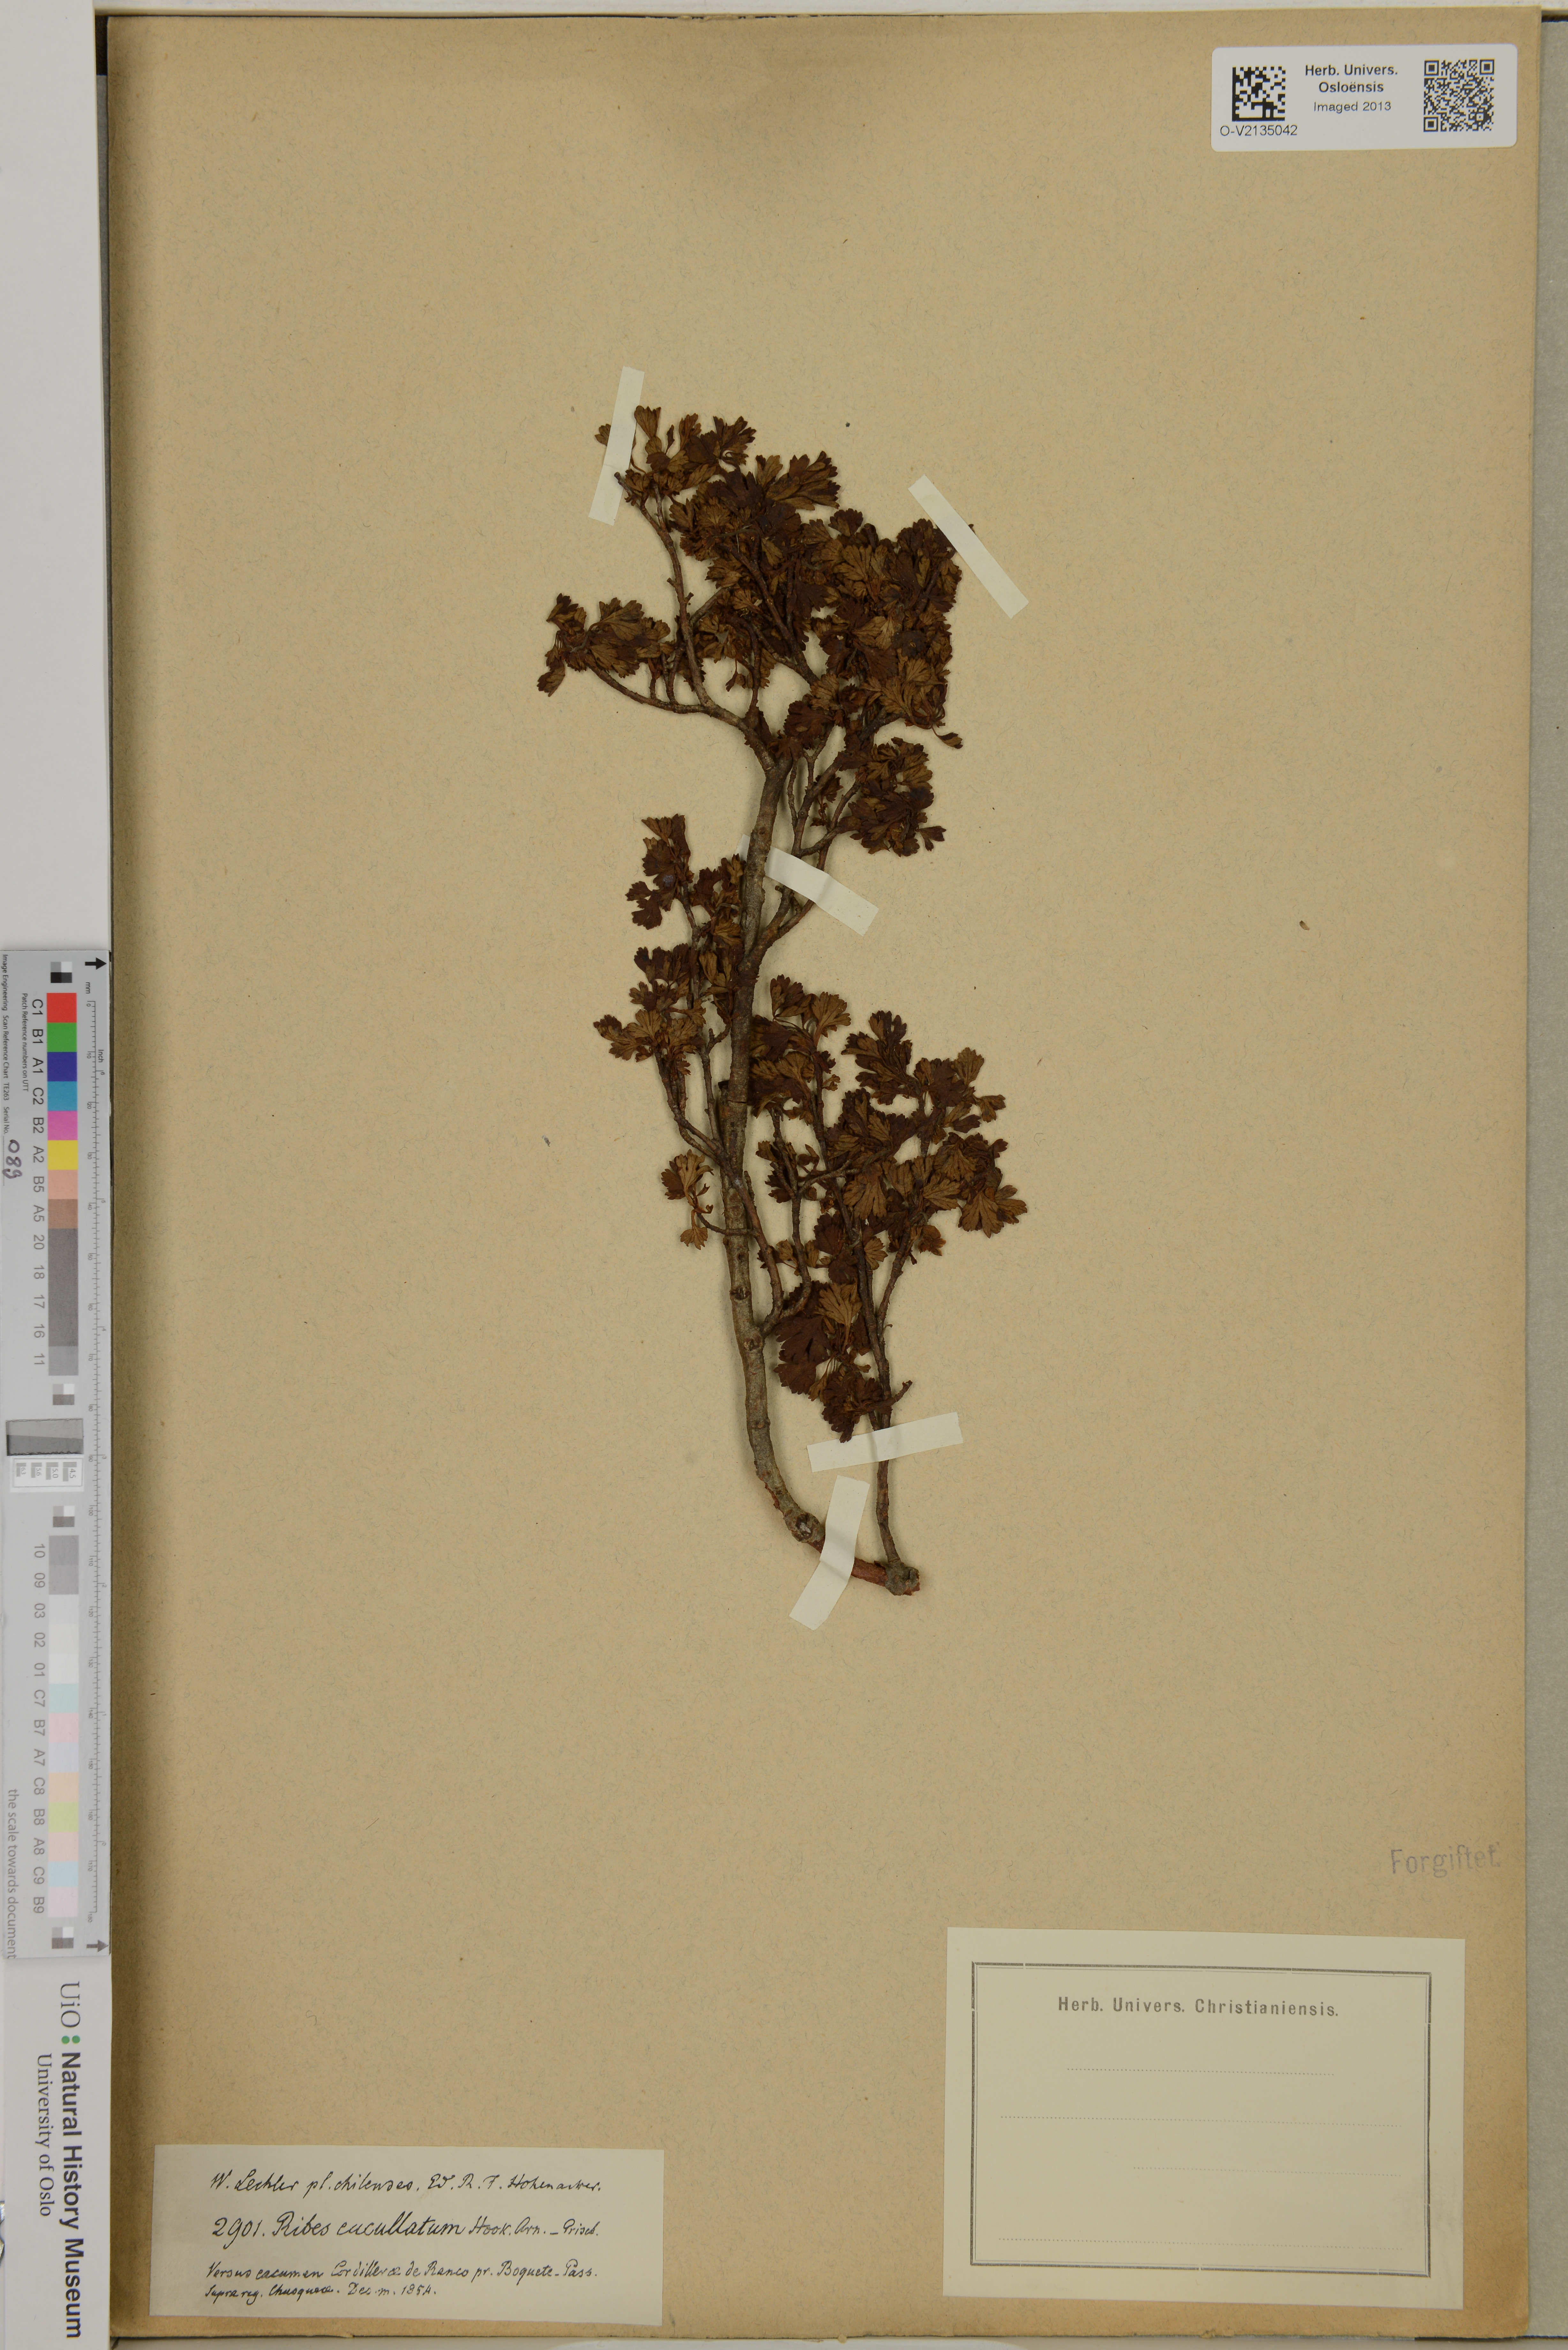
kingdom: Plantae
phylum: Tracheophyta
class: Magnoliopsida
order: Saxifragales
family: Grossulariaceae
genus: Ribes
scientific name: Ribes cucullatum
